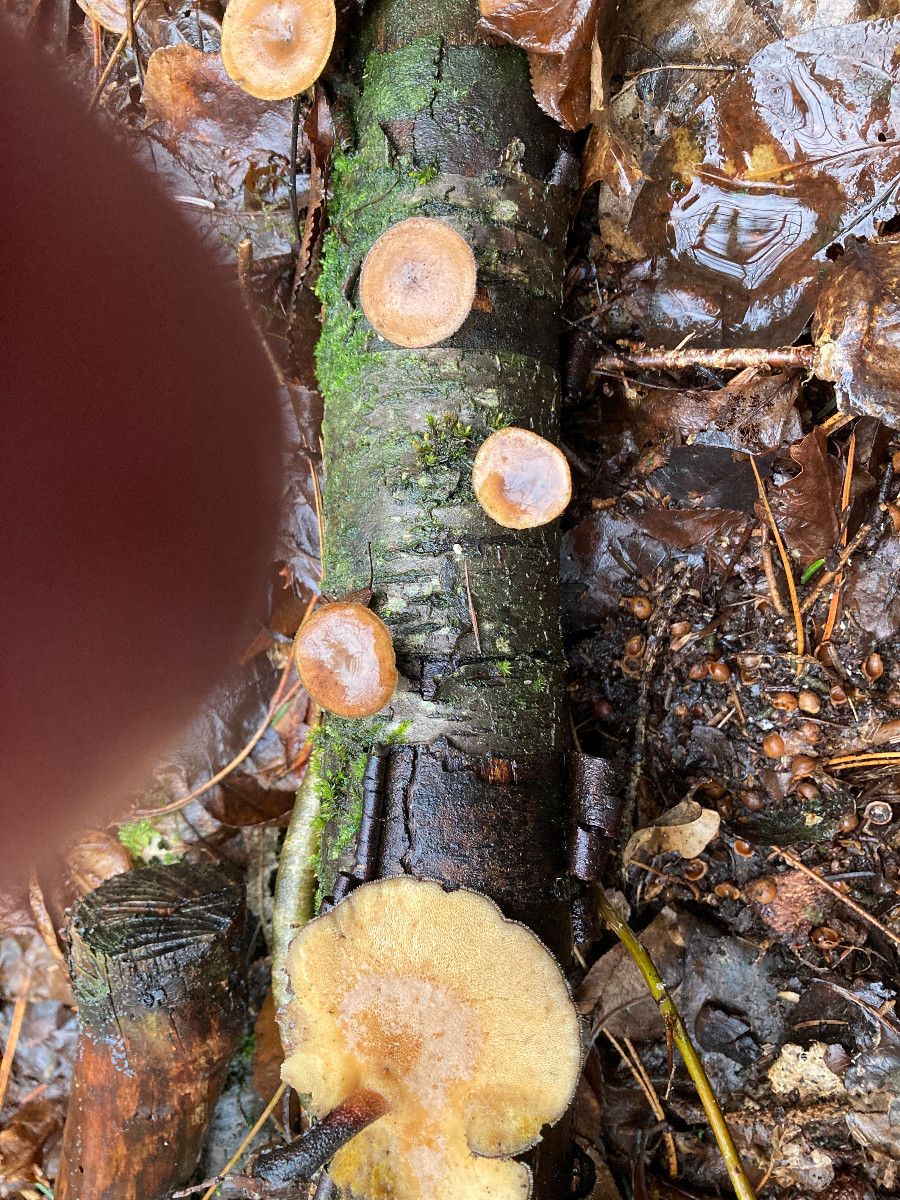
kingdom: Fungi
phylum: Basidiomycota
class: Agaricomycetes
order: Polyporales
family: Polyporaceae
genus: Lentinus
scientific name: Lentinus brumalis
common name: vinter-stilkporesvamp
